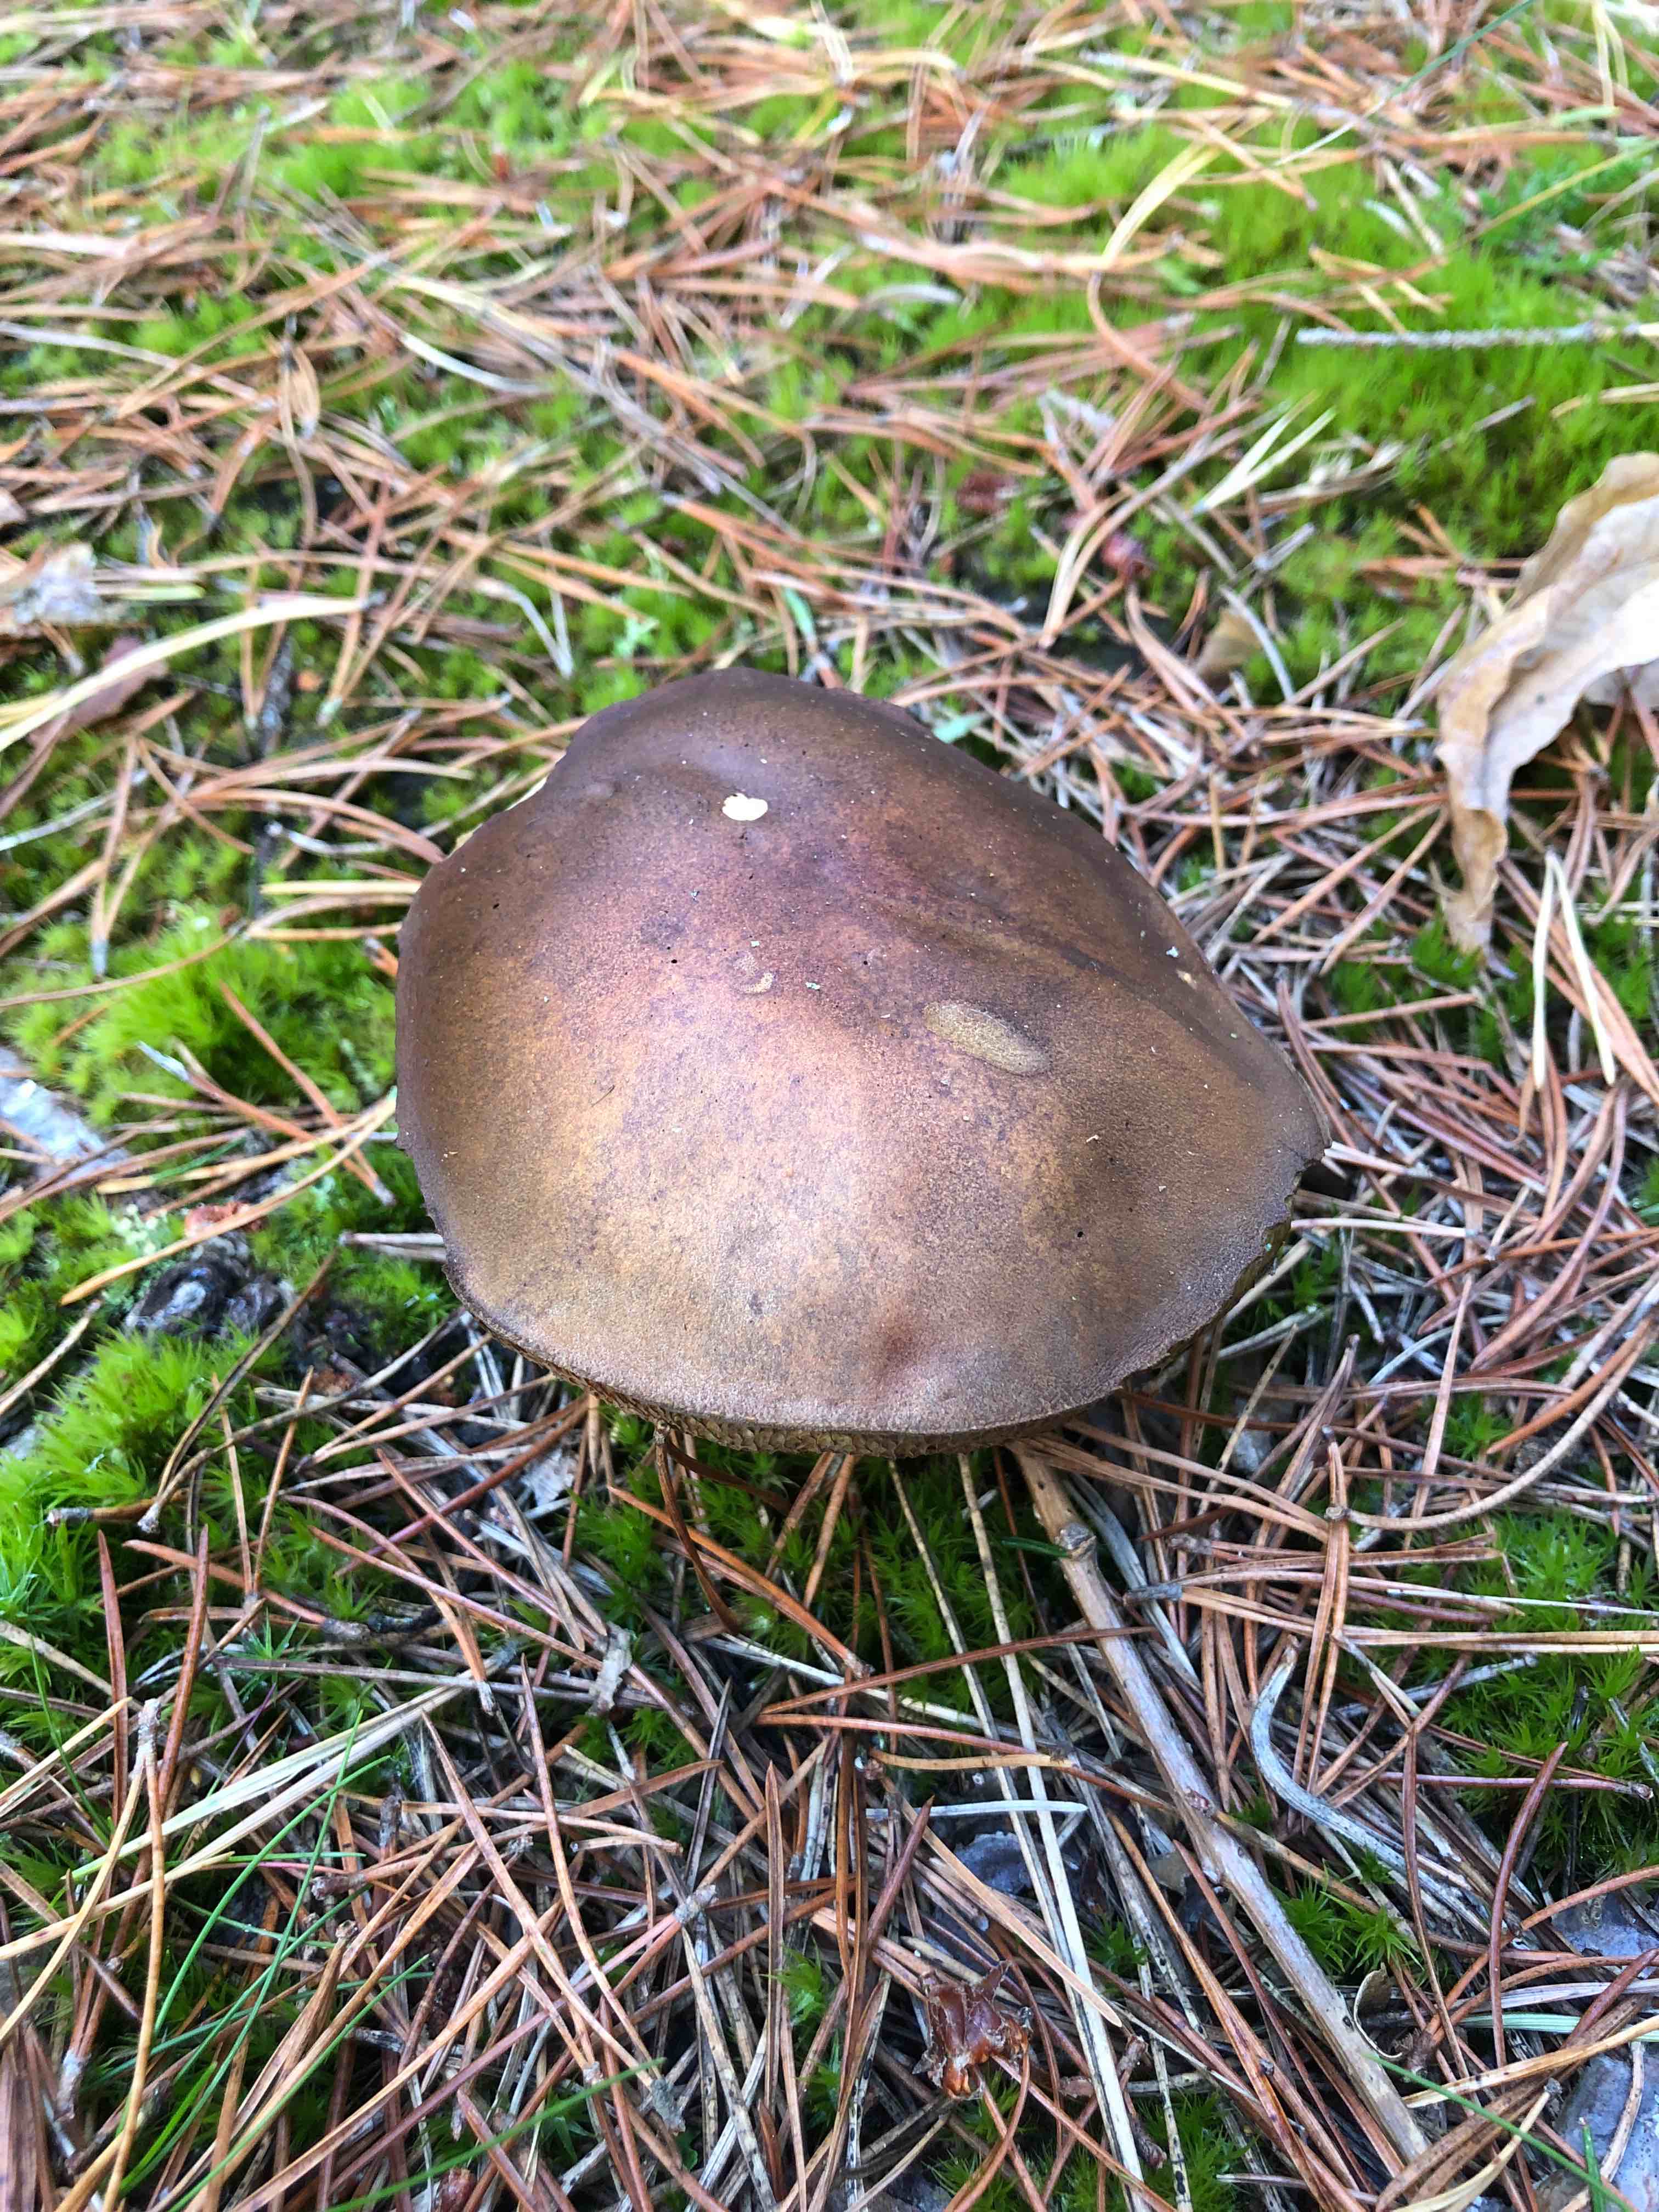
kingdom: Fungi
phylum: Basidiomycota
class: Agaricomycetes
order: Boletales
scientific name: Boletales
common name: rørhatordenen
